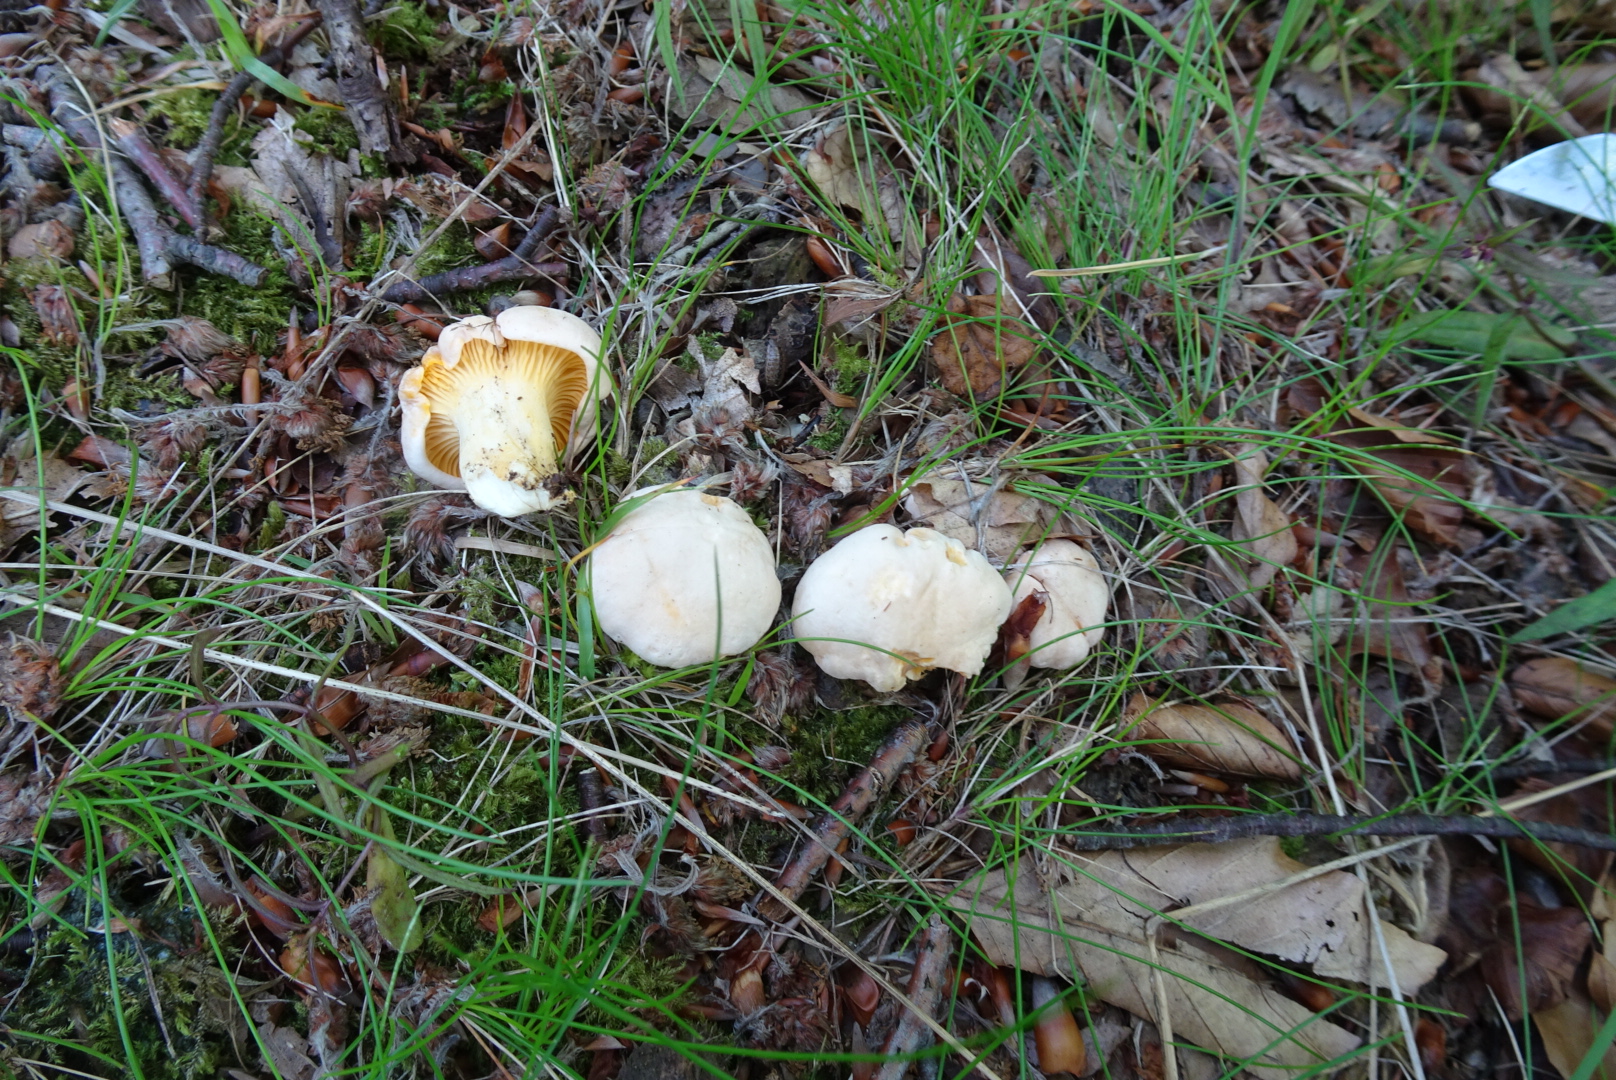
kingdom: Fungi
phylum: Basidiomycota
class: Agaricomycetes
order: Cantharellales
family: Hydnaceae
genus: Cantharellus
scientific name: Cantharellus pallens
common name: bleg kantarel
